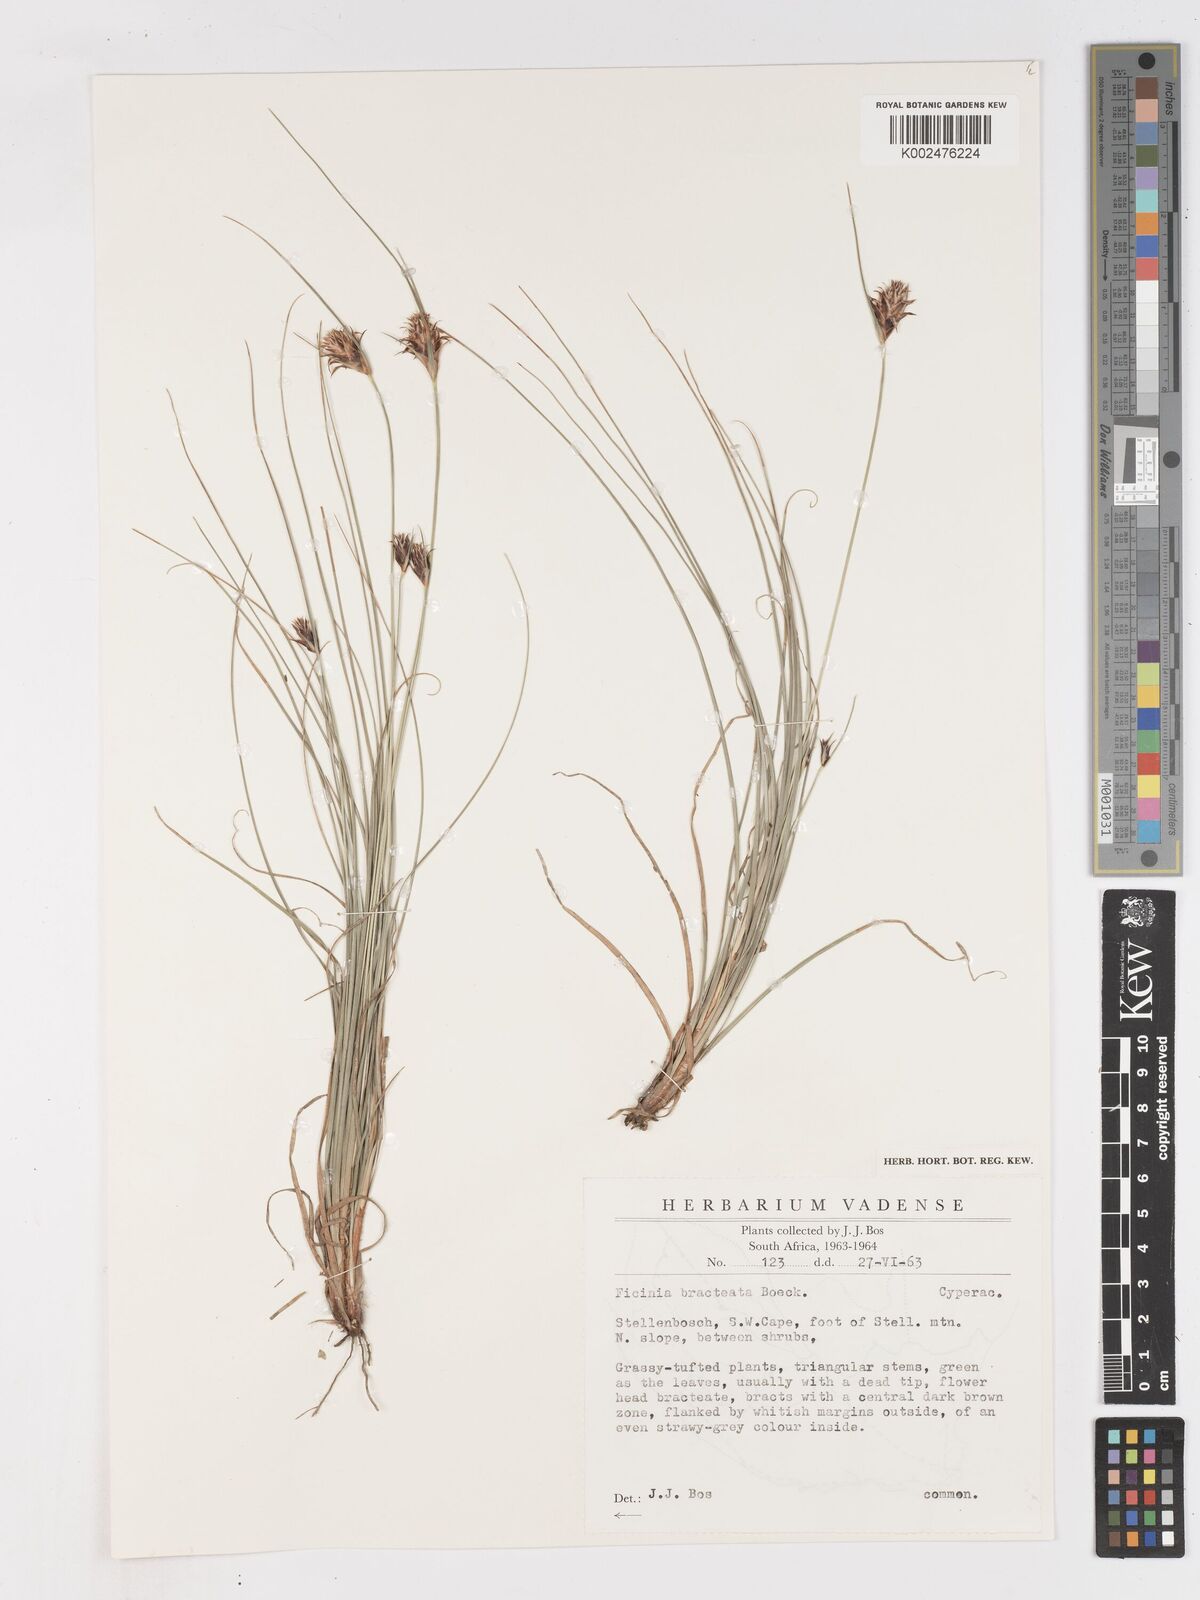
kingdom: Plantae
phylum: Tracheophyta
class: Liliopsida
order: Poales
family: Cyperaceae
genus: Ficinia
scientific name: Ficinia nigrescens
